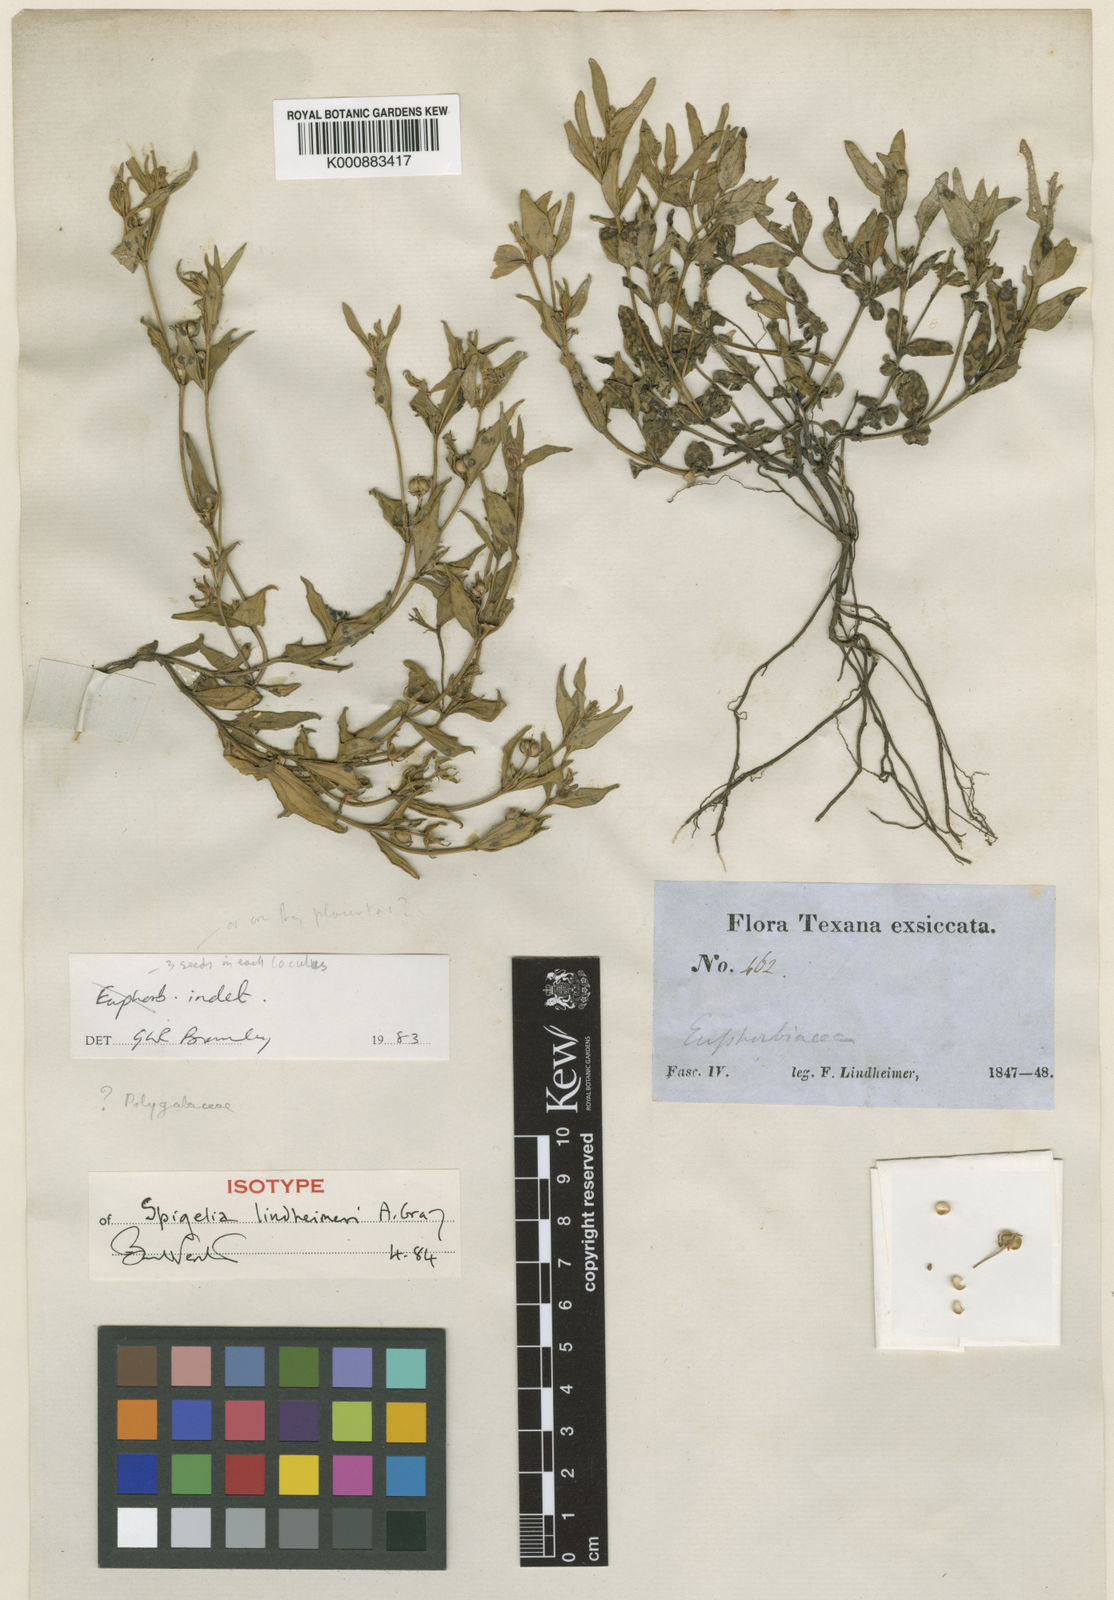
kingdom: Plantae
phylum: Tracheophyta
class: Magnoliopsida
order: Gentianales
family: Loganiaceae
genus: Spigelia
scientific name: Spigelia hedyotidea
